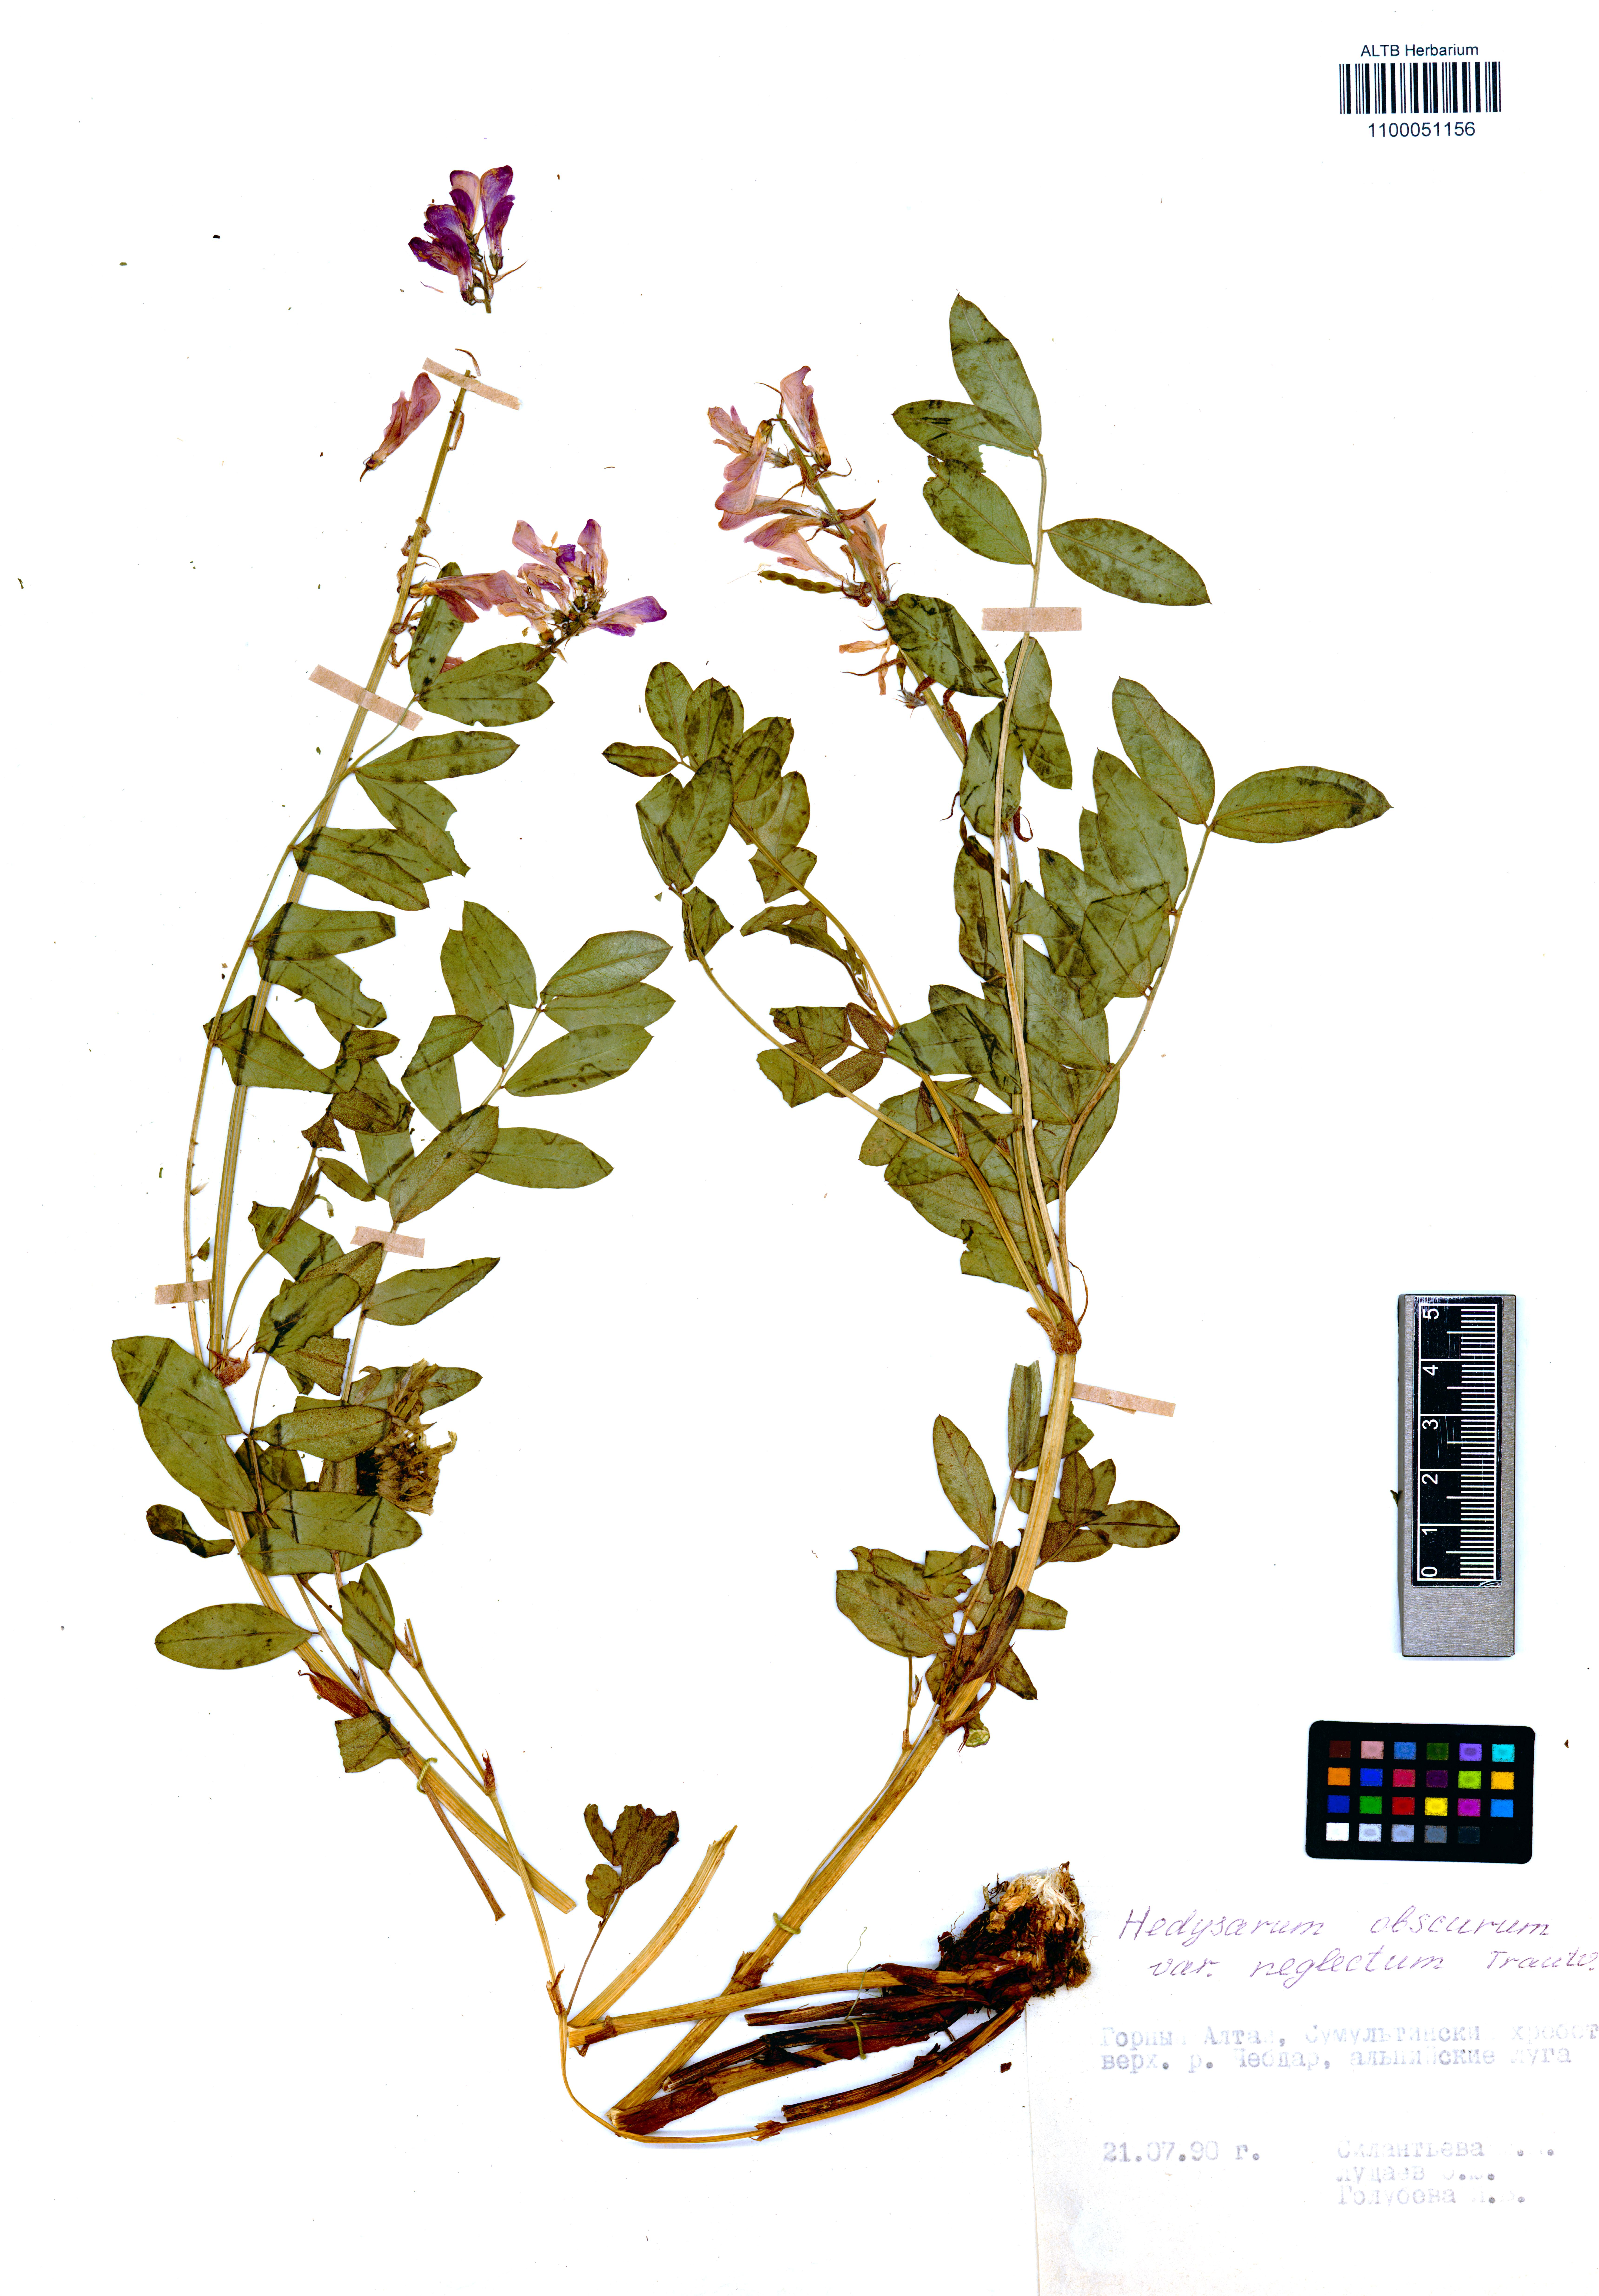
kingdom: Plantae
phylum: Tracheophyta
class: Magnoliopsida
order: Fabales
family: Fabaceae
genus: Hedysarum
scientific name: Hedysarum hedysaroides
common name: Alpine french-honeysuckle
